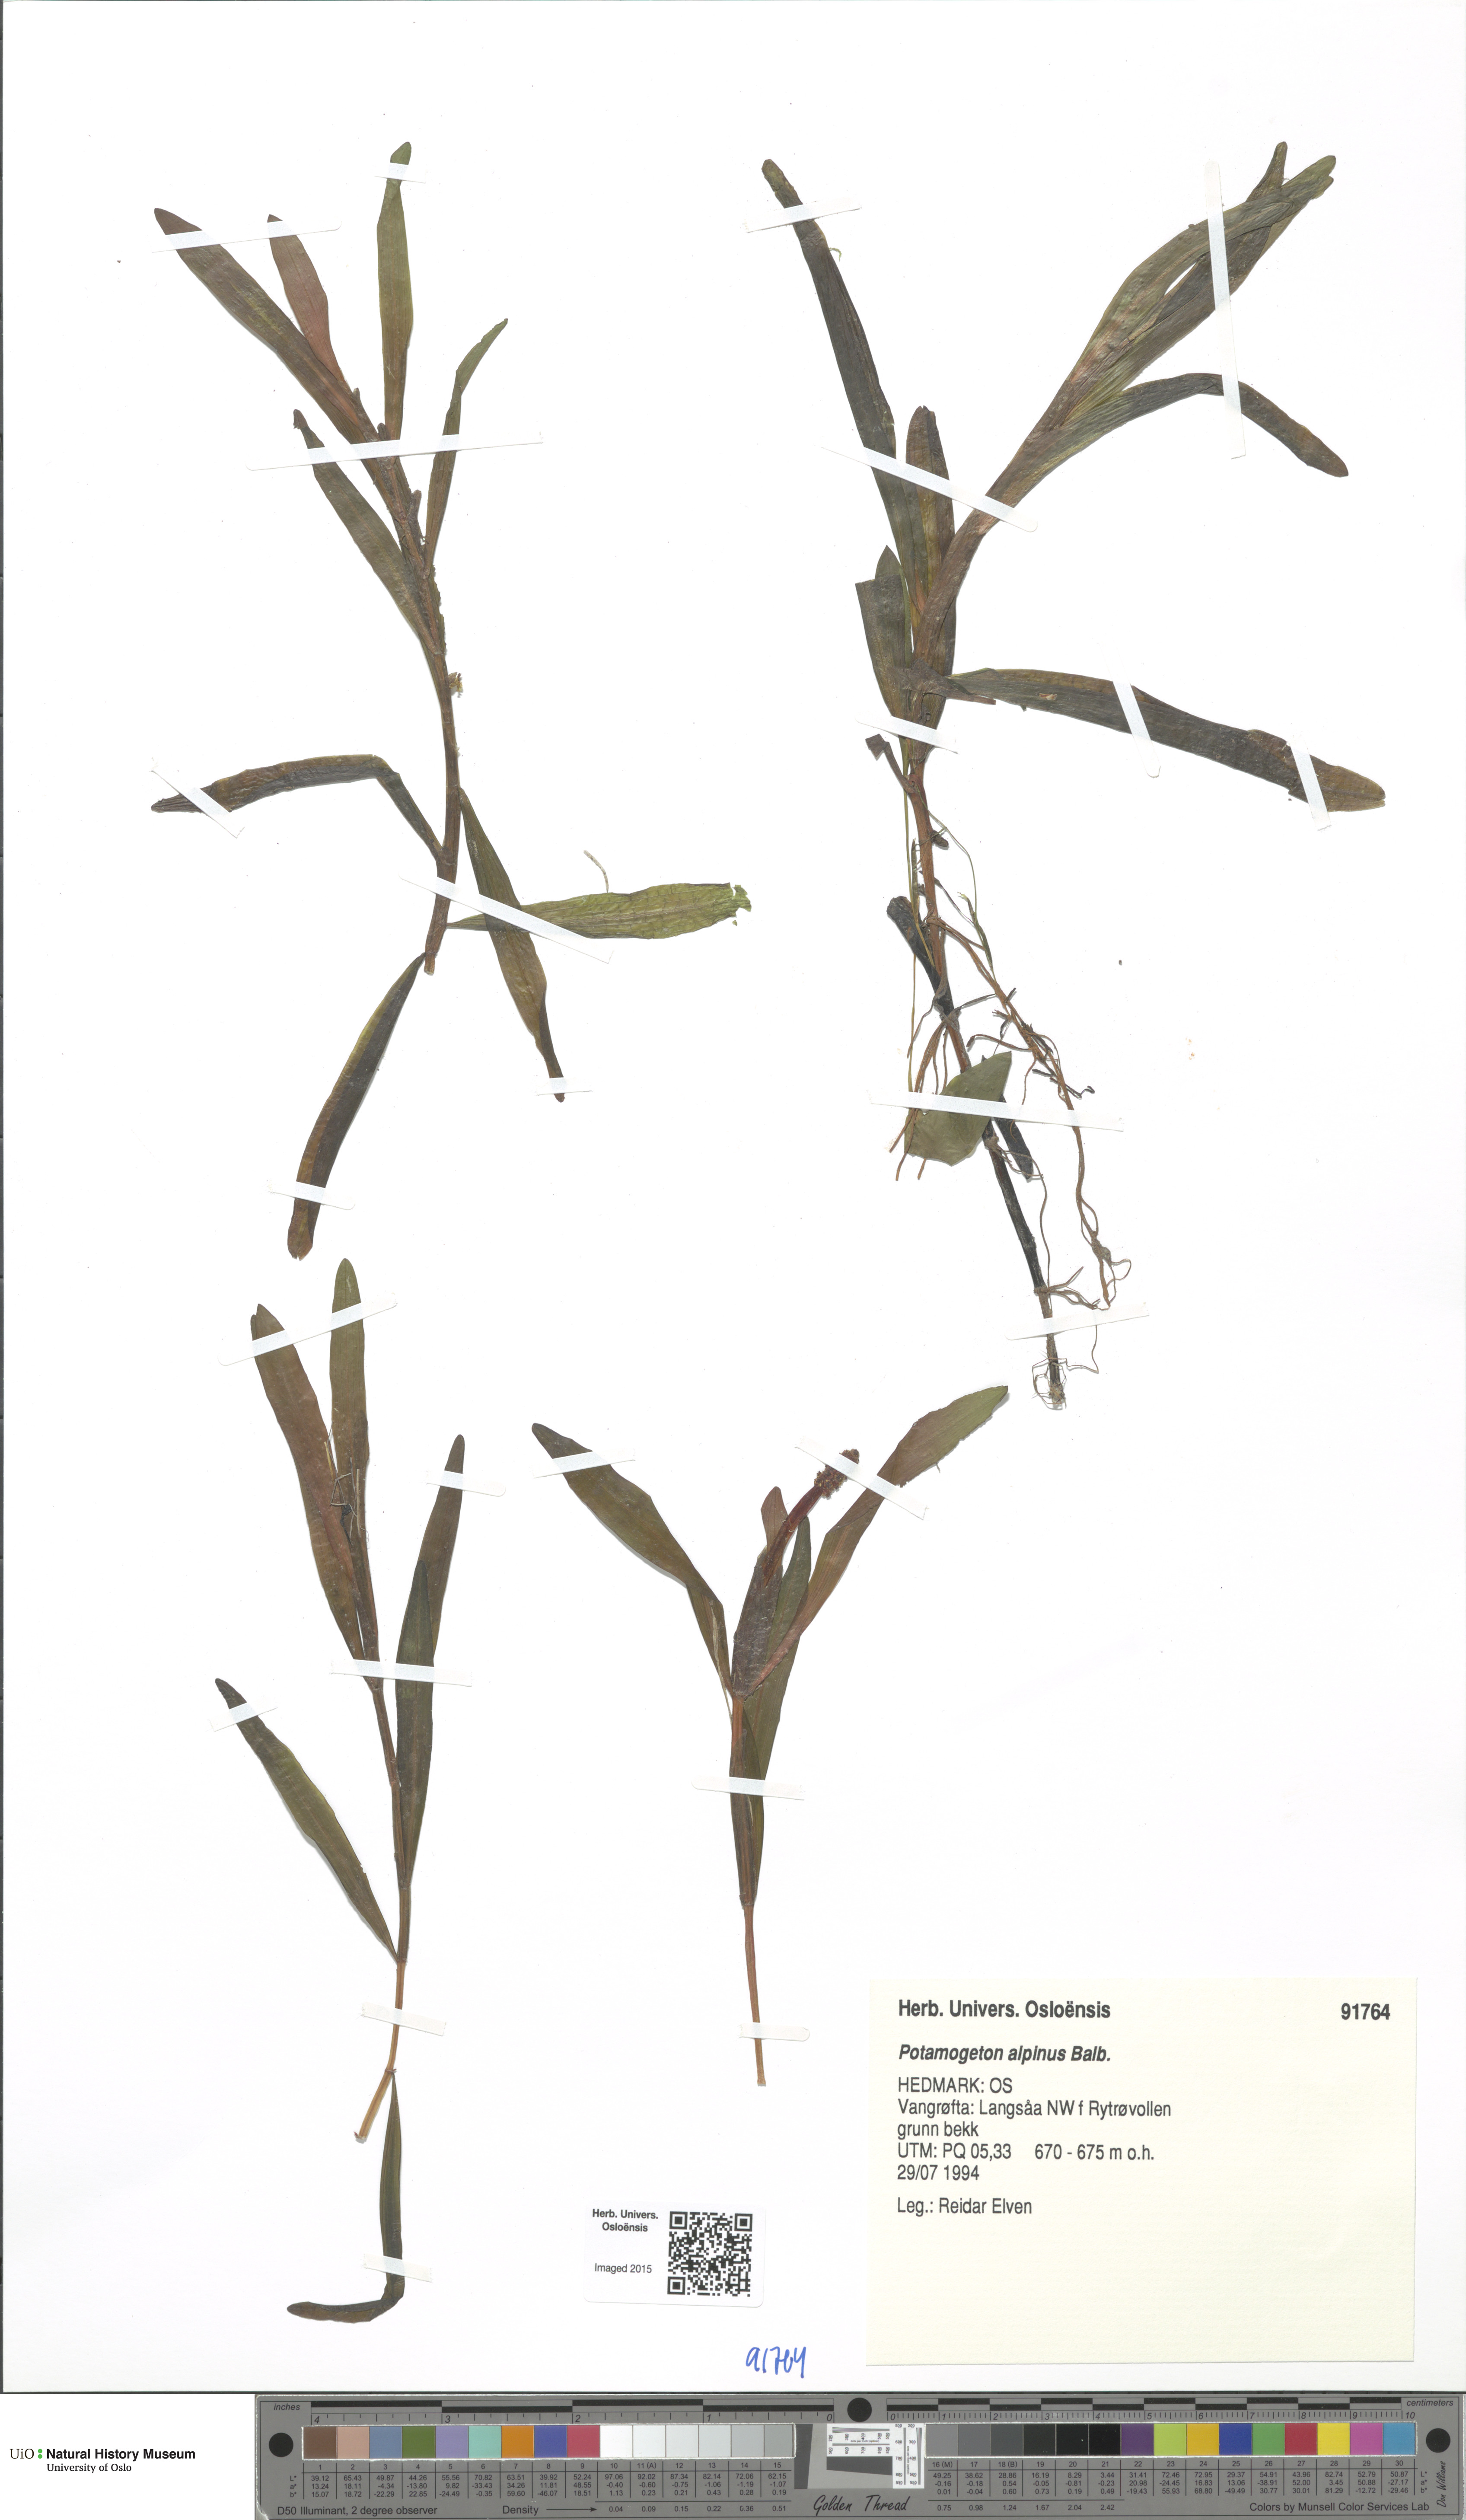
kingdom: Plantae
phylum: Tracheophyta
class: Liliopsida
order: Alismatales
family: Potamogetonaceae
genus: Potamogeton
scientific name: Potamogeton alpinus
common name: Red pondweed
